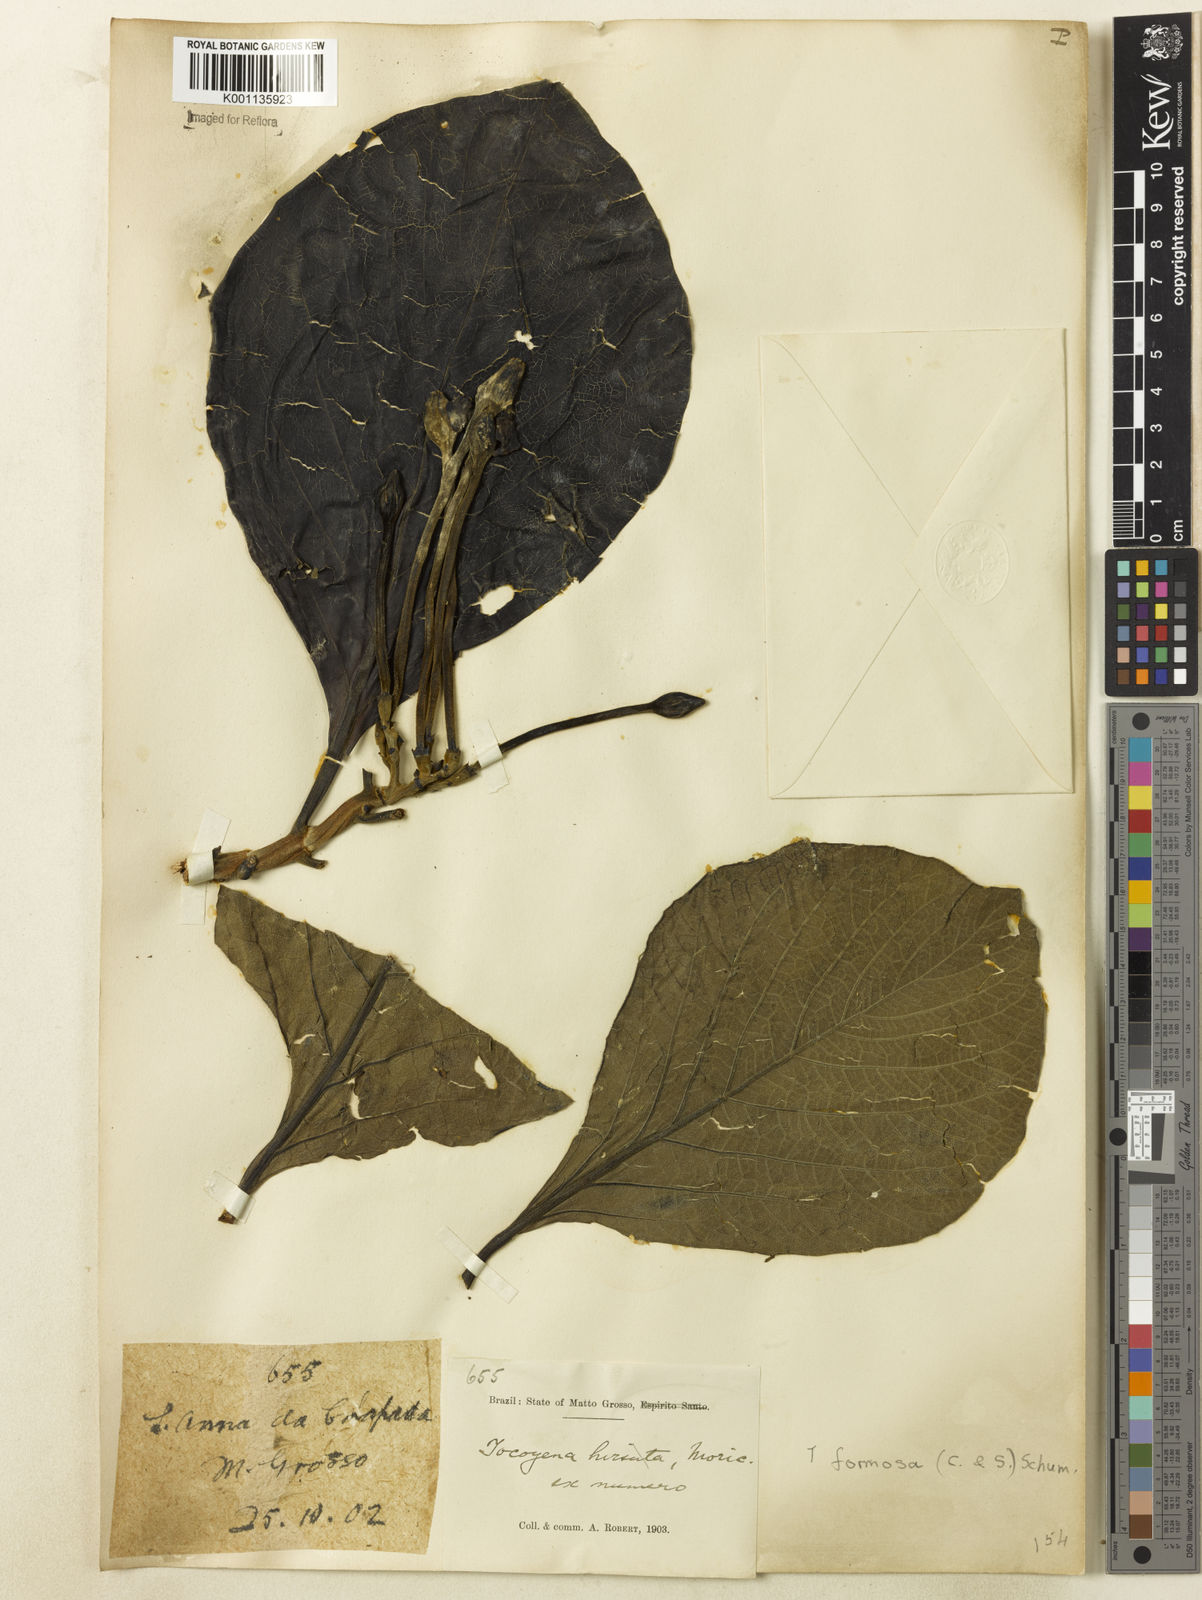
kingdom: Plantae
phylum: Tracheophyta
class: Magnoliopsida
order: Gentianales
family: Rubiaceae
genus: Tocoyena
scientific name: Tocoyena formosa
